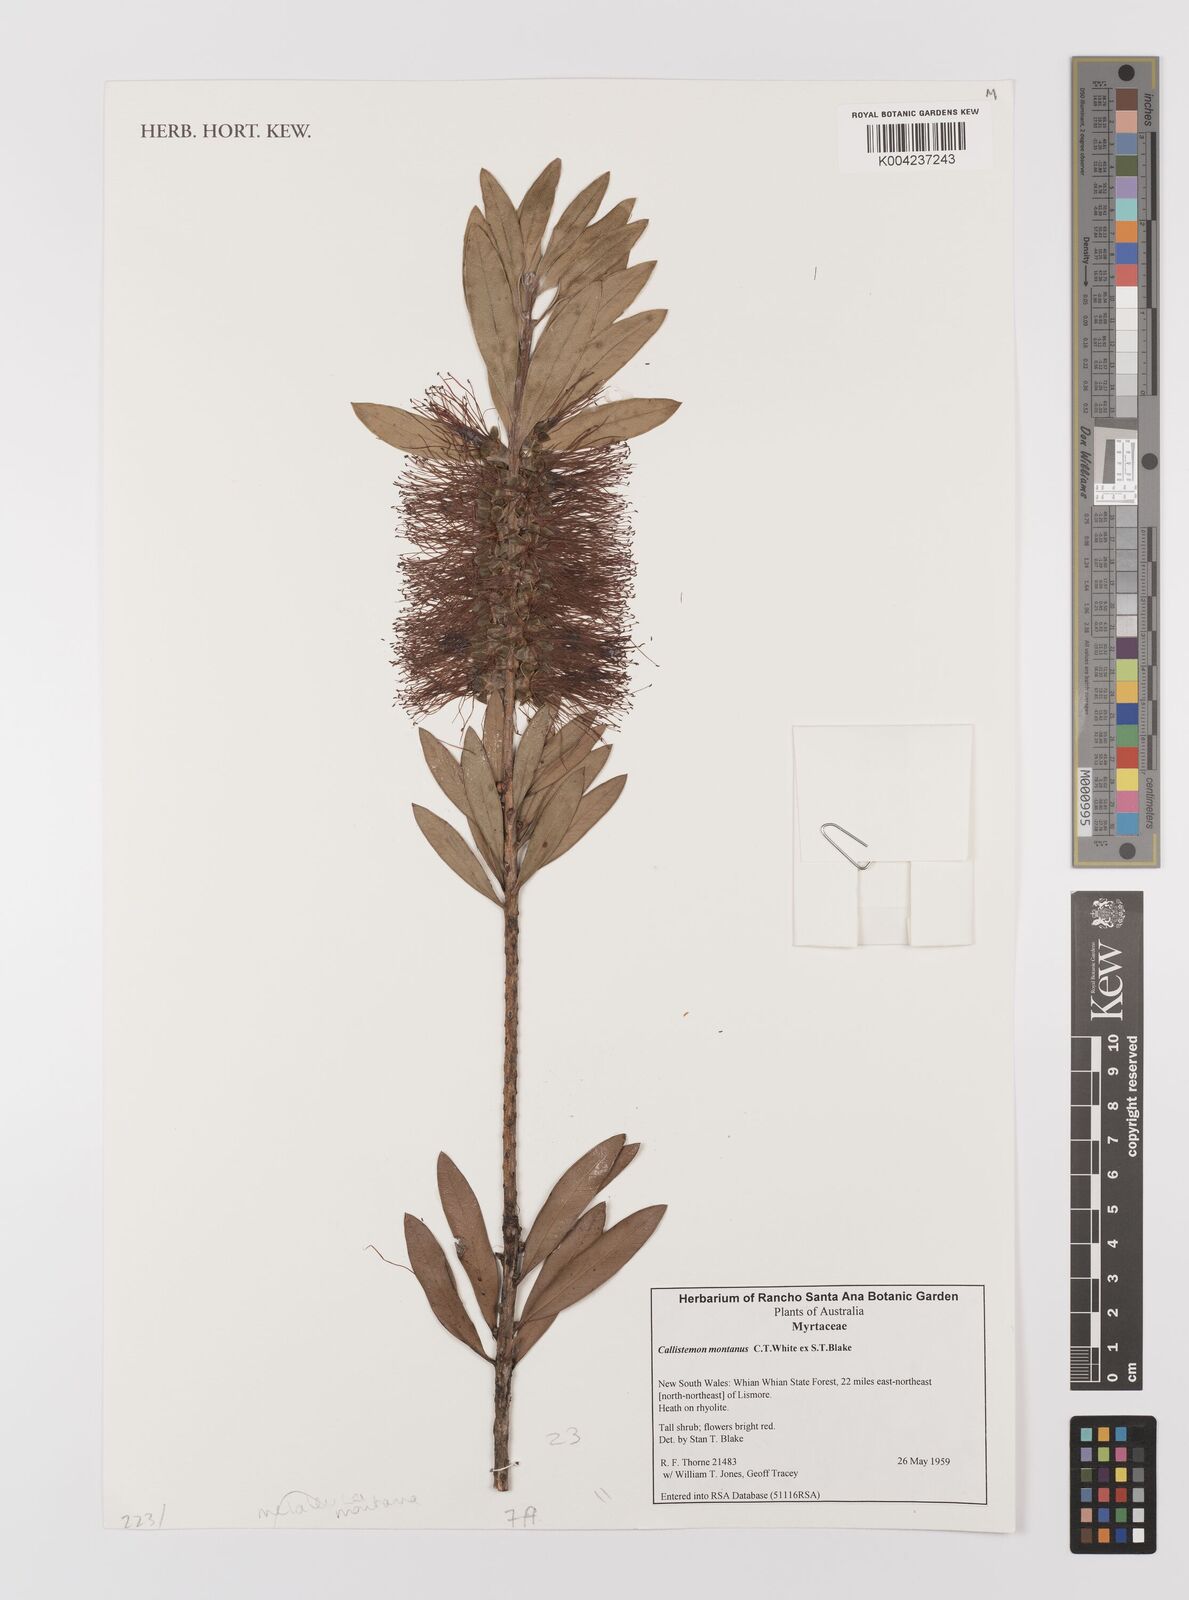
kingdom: Plantae
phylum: Tracheophyta
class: Magnoliopsida
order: Myrtales
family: Myrtaceae
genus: Callistemon
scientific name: Callistemon montanus
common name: Mountain bottlebrush
